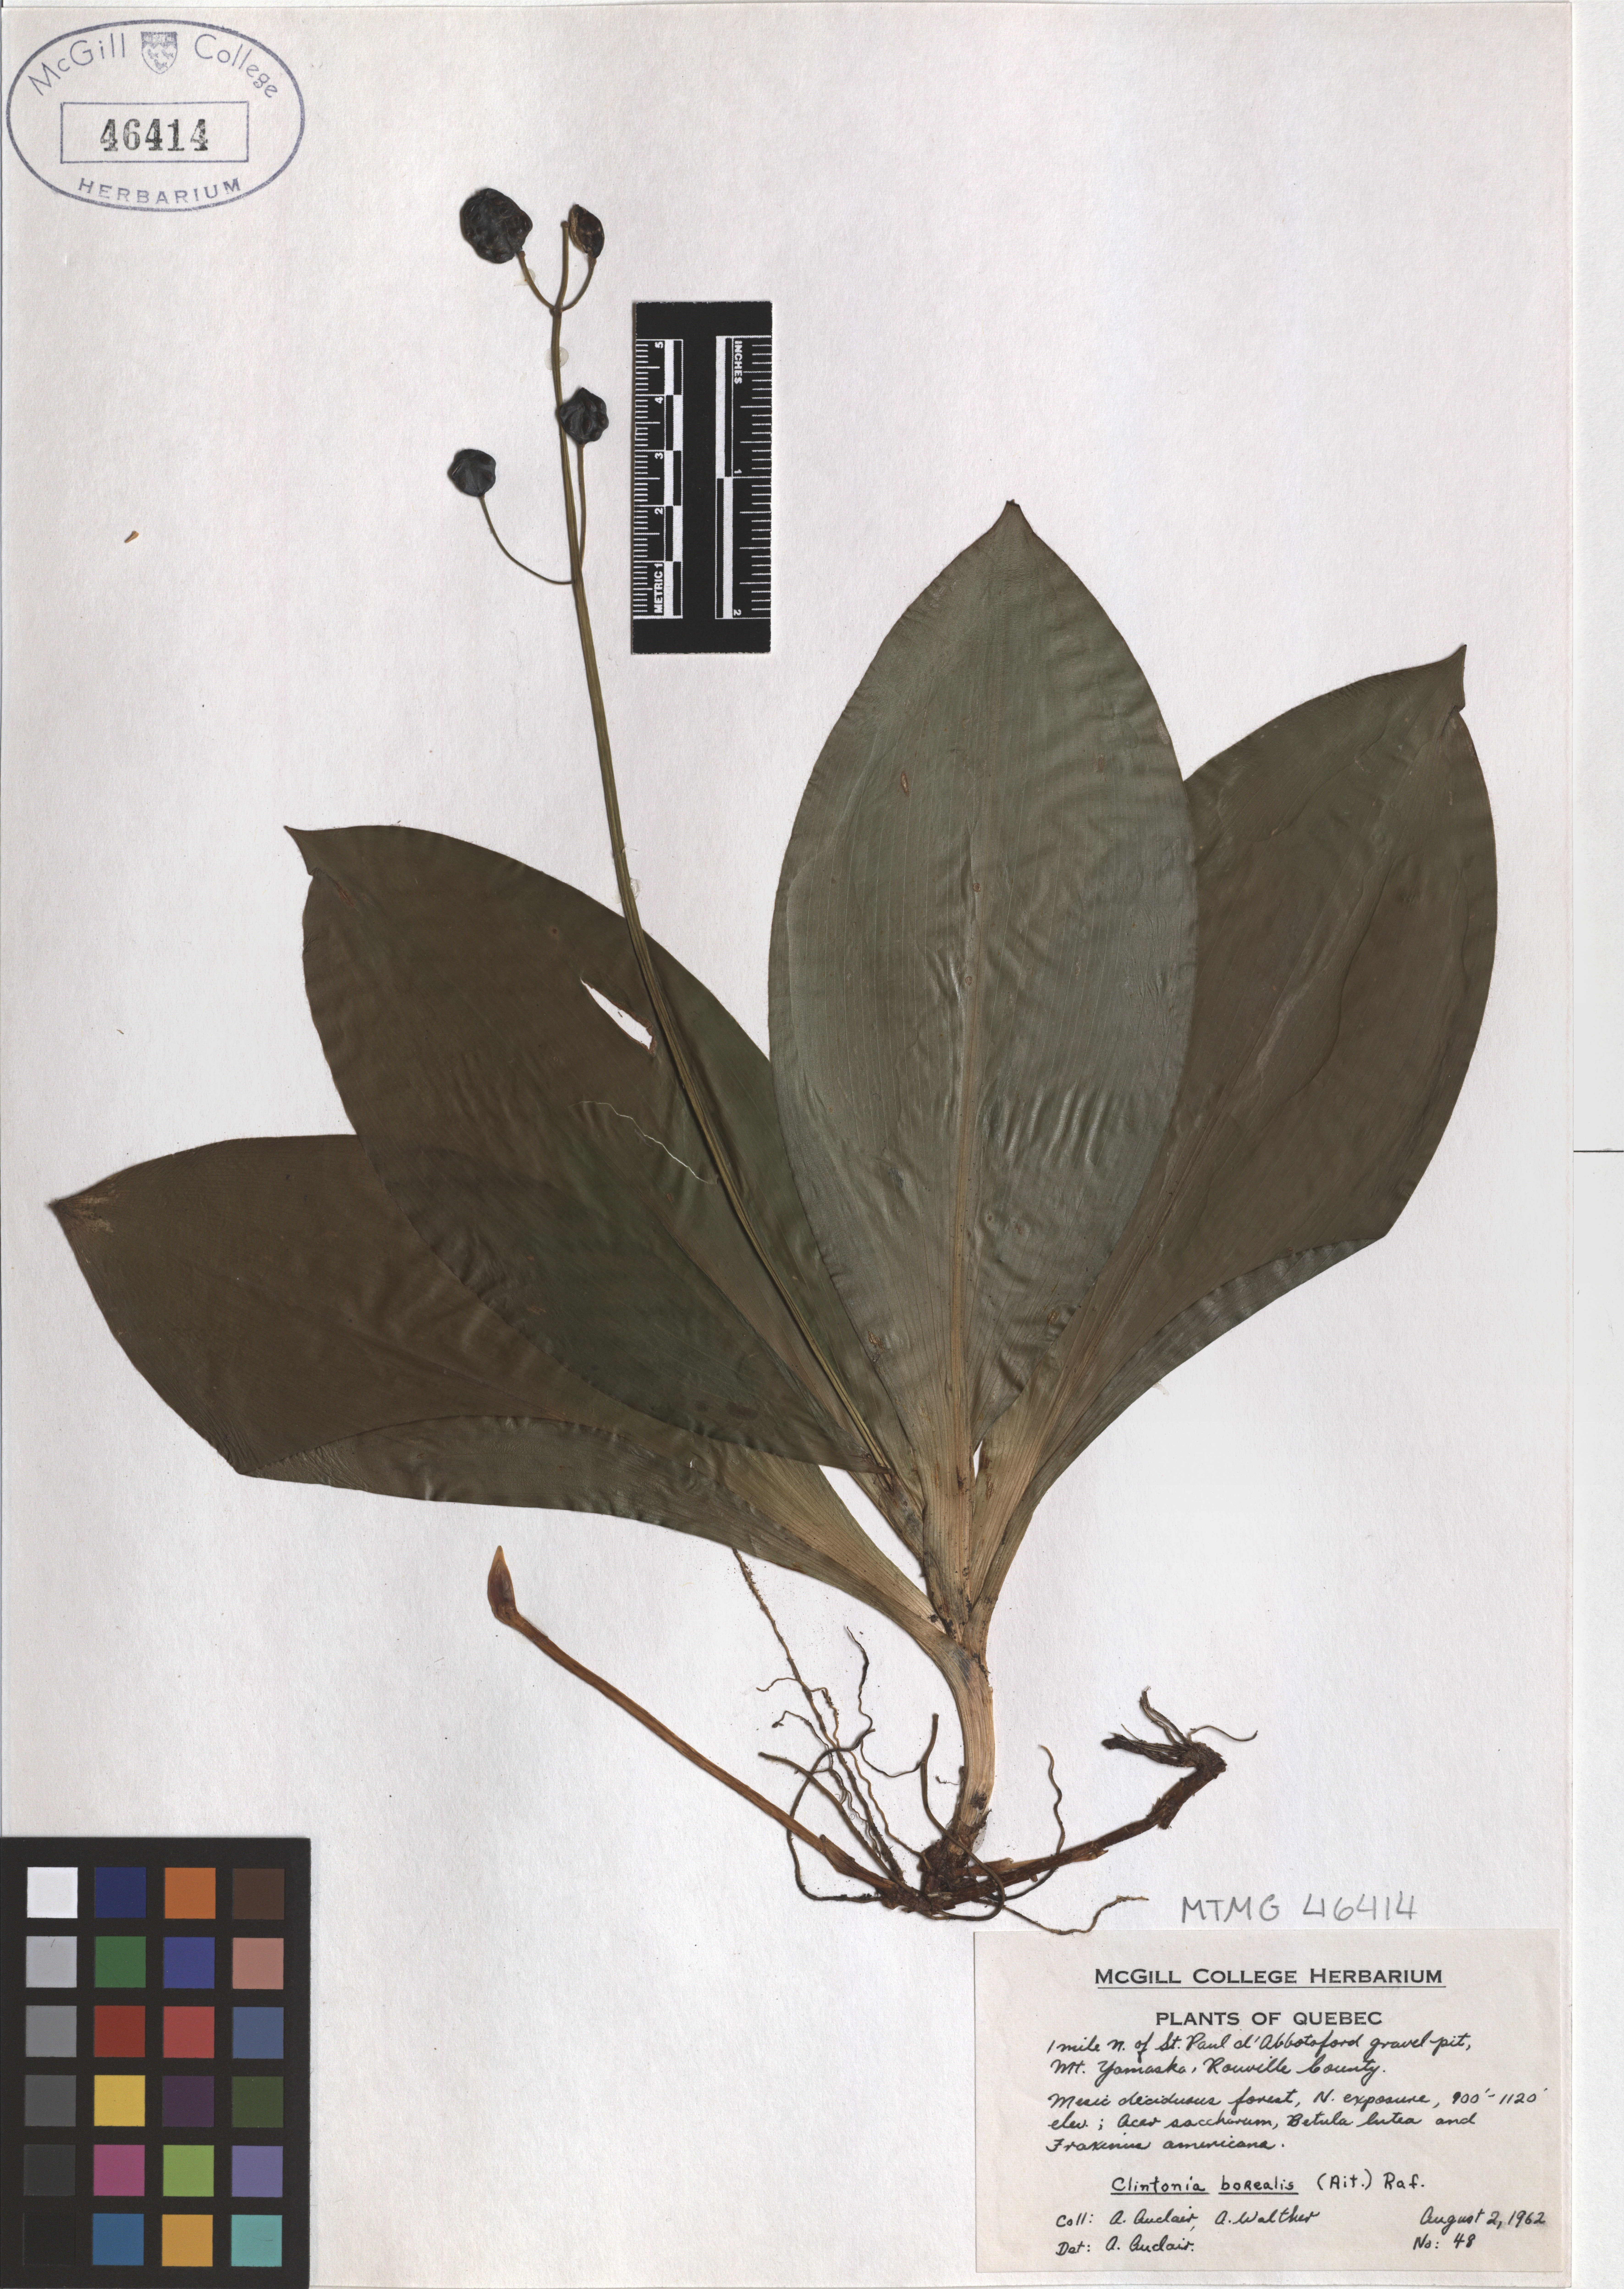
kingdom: Plantae
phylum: Tracheophyta
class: Liliopsida
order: Liliales
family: Liliaceae
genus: Clintonia
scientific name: Clintonia borealis
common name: Yellow clintonia
